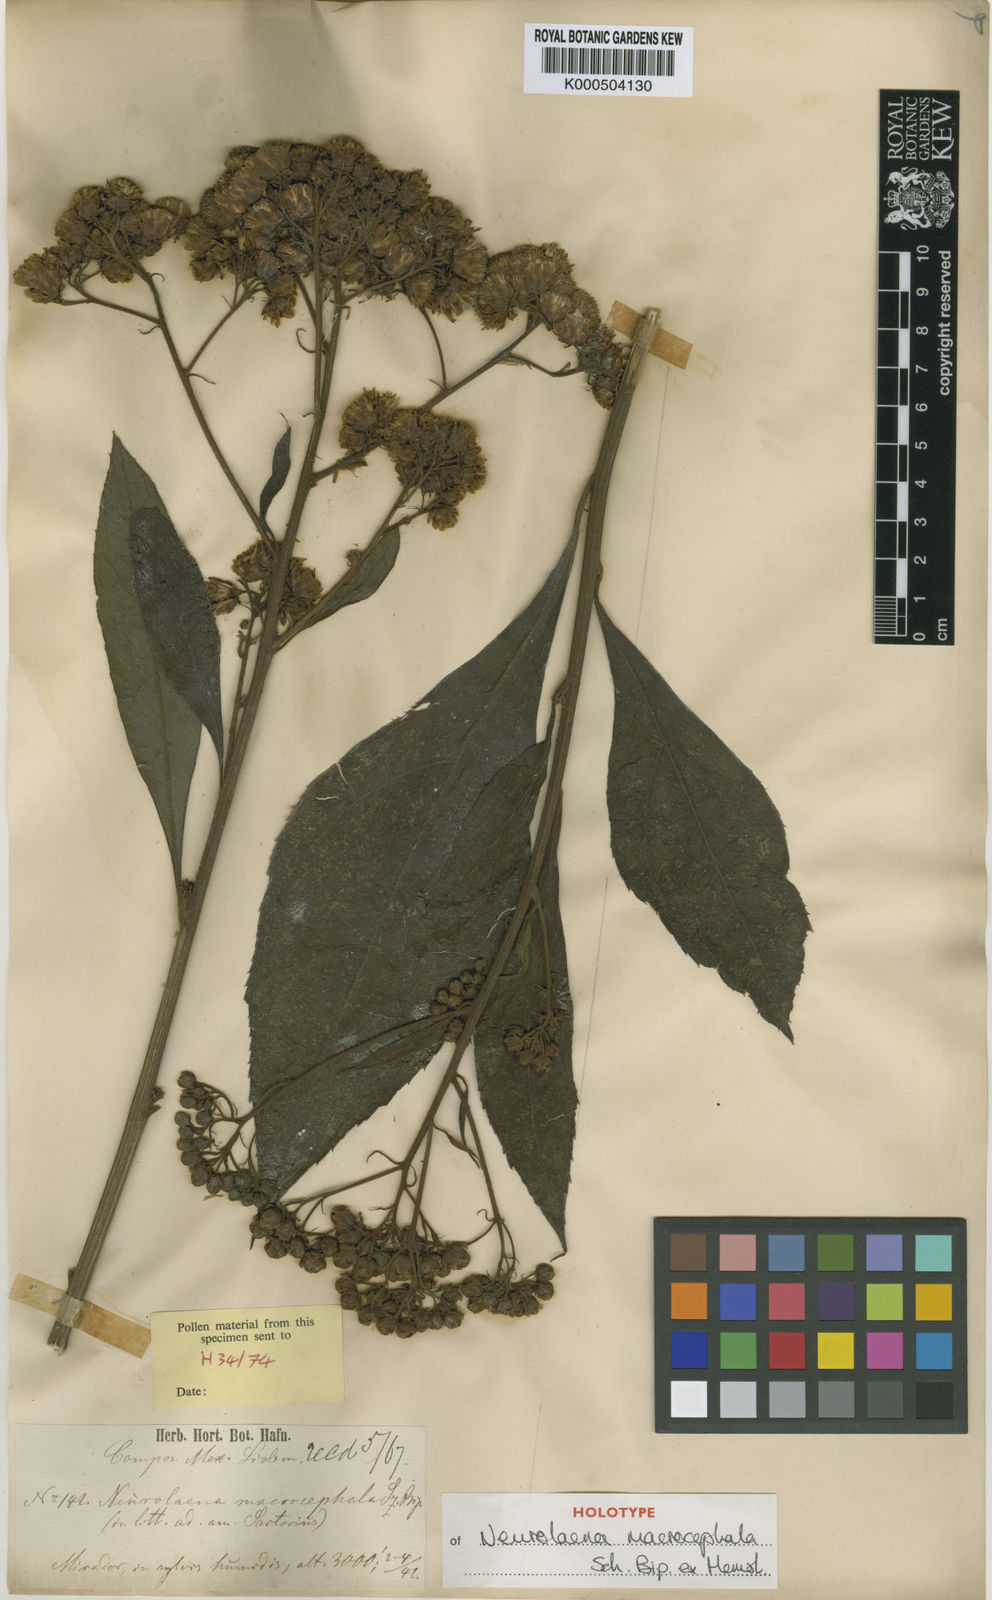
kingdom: Plantae
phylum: Tracheophyta
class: Magnoliopsida
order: Asterales
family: Asteraceae
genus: Neurolaena
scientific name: Neurolaena macrocephala
